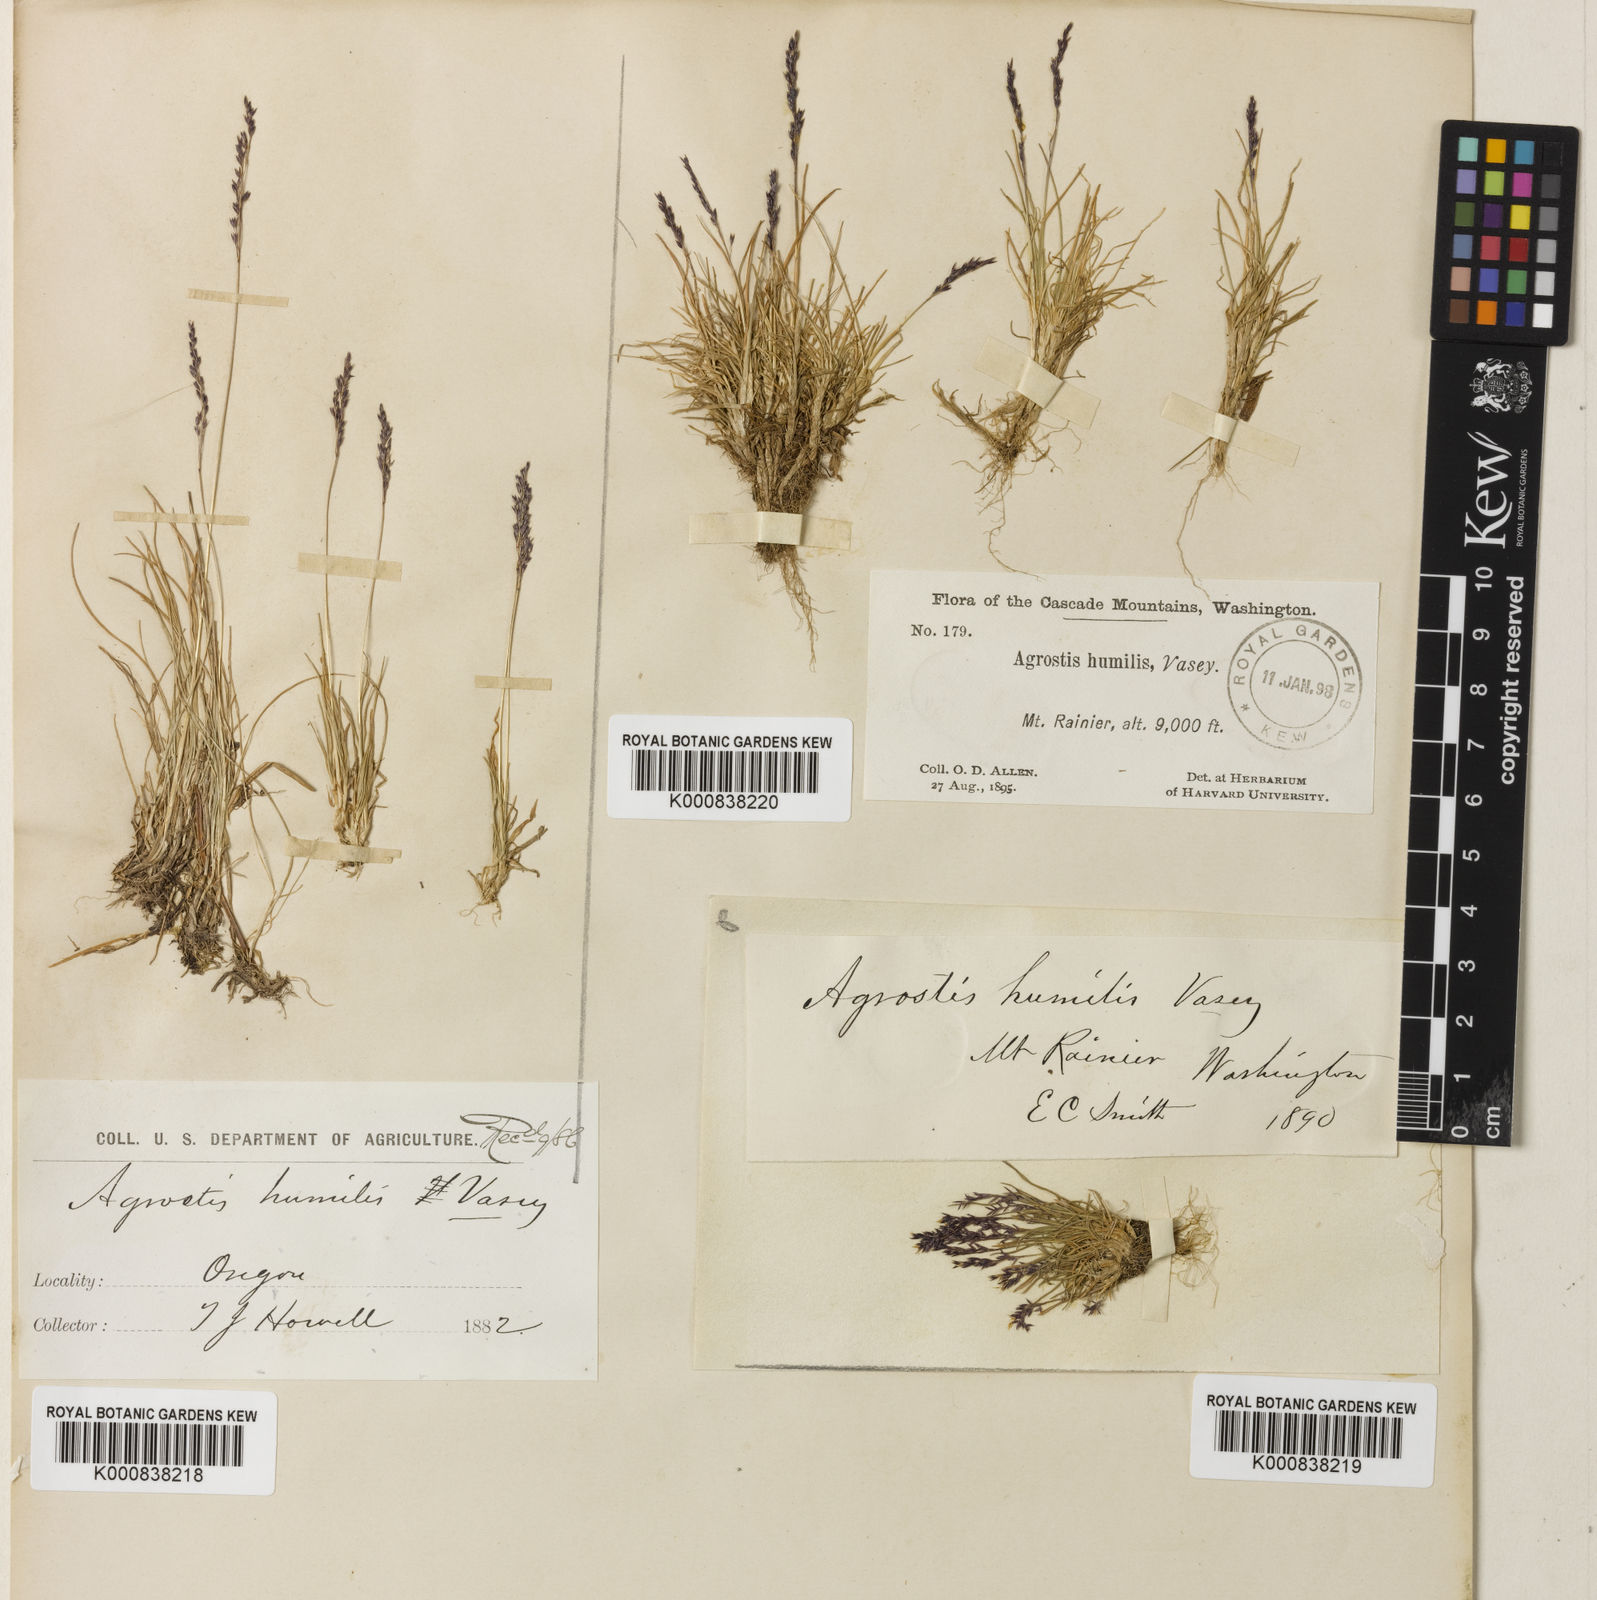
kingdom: Plantae
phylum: Tracheophyta
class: Liliopsida
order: Poales
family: Poaceae
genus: Podagrostis
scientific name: Podagrostis humilis
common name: Thurber's bentgrass
